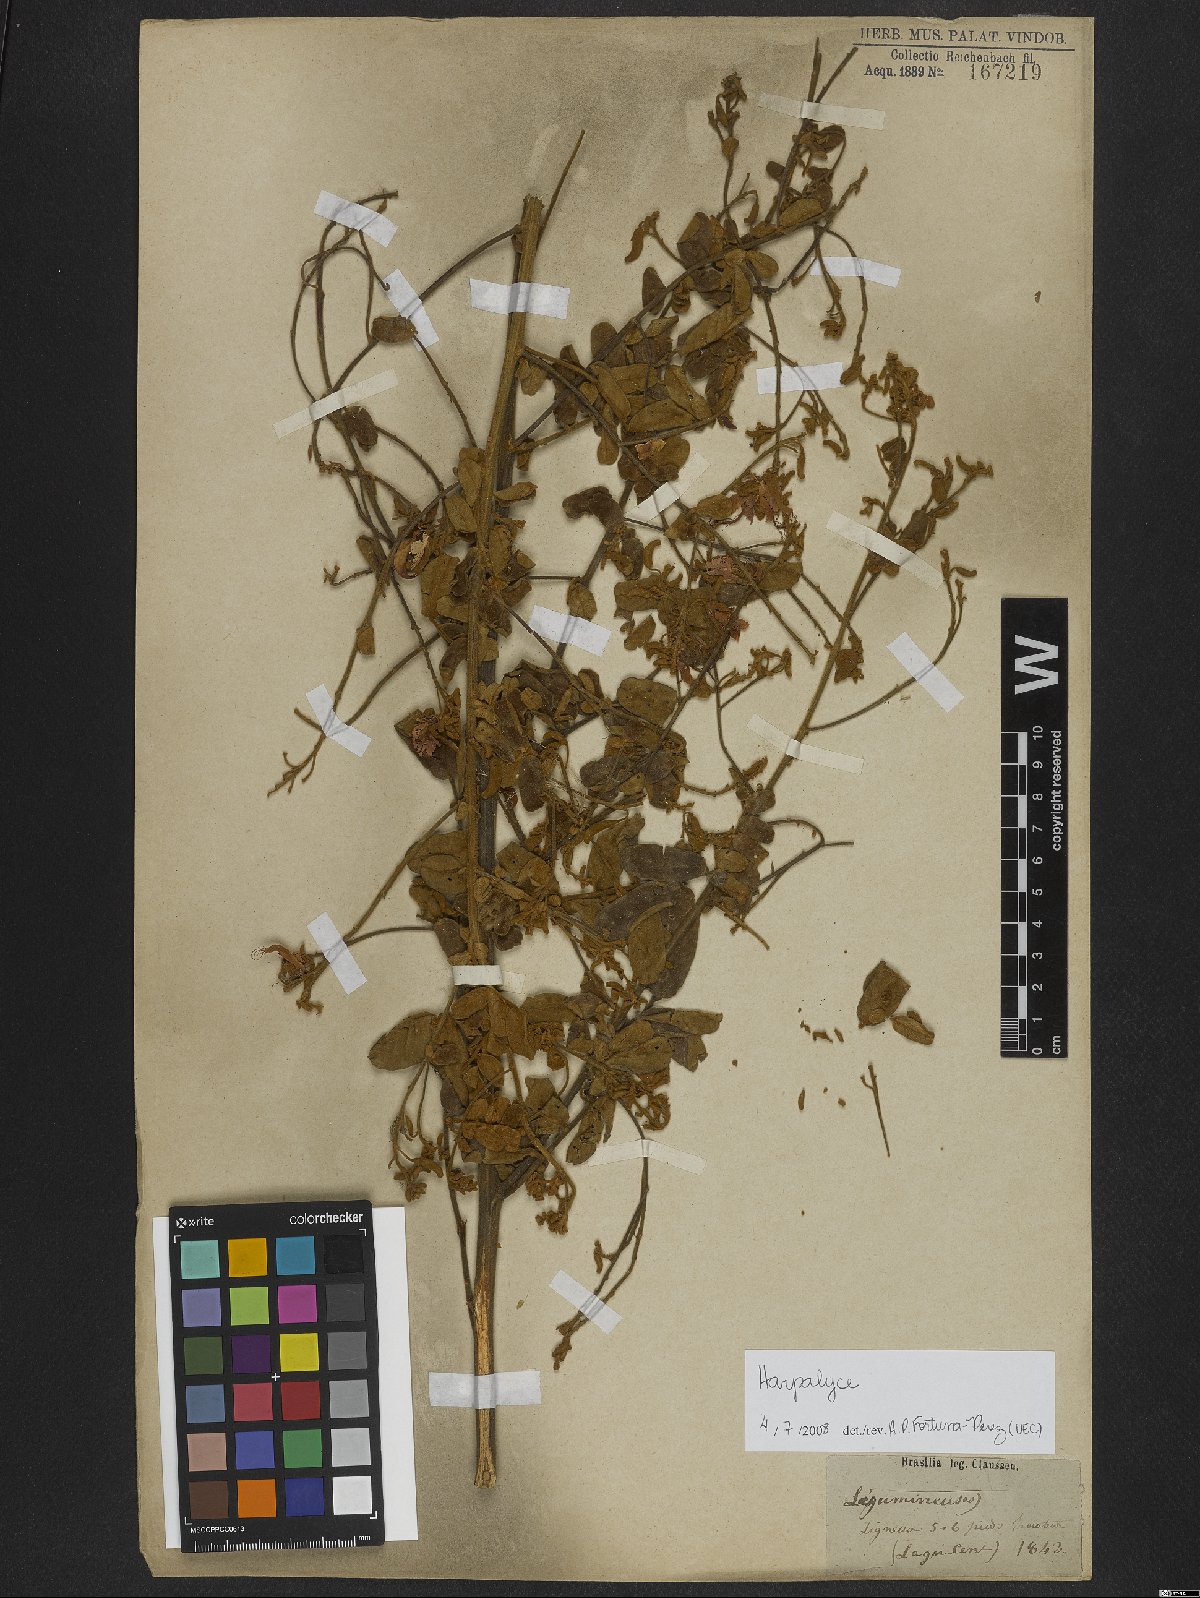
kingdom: Plantae
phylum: Tracheophyta
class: Magnoliopsida
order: Fabales
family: Fabaceae
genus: Harpalyce
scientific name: Harpalyce parvifolia
